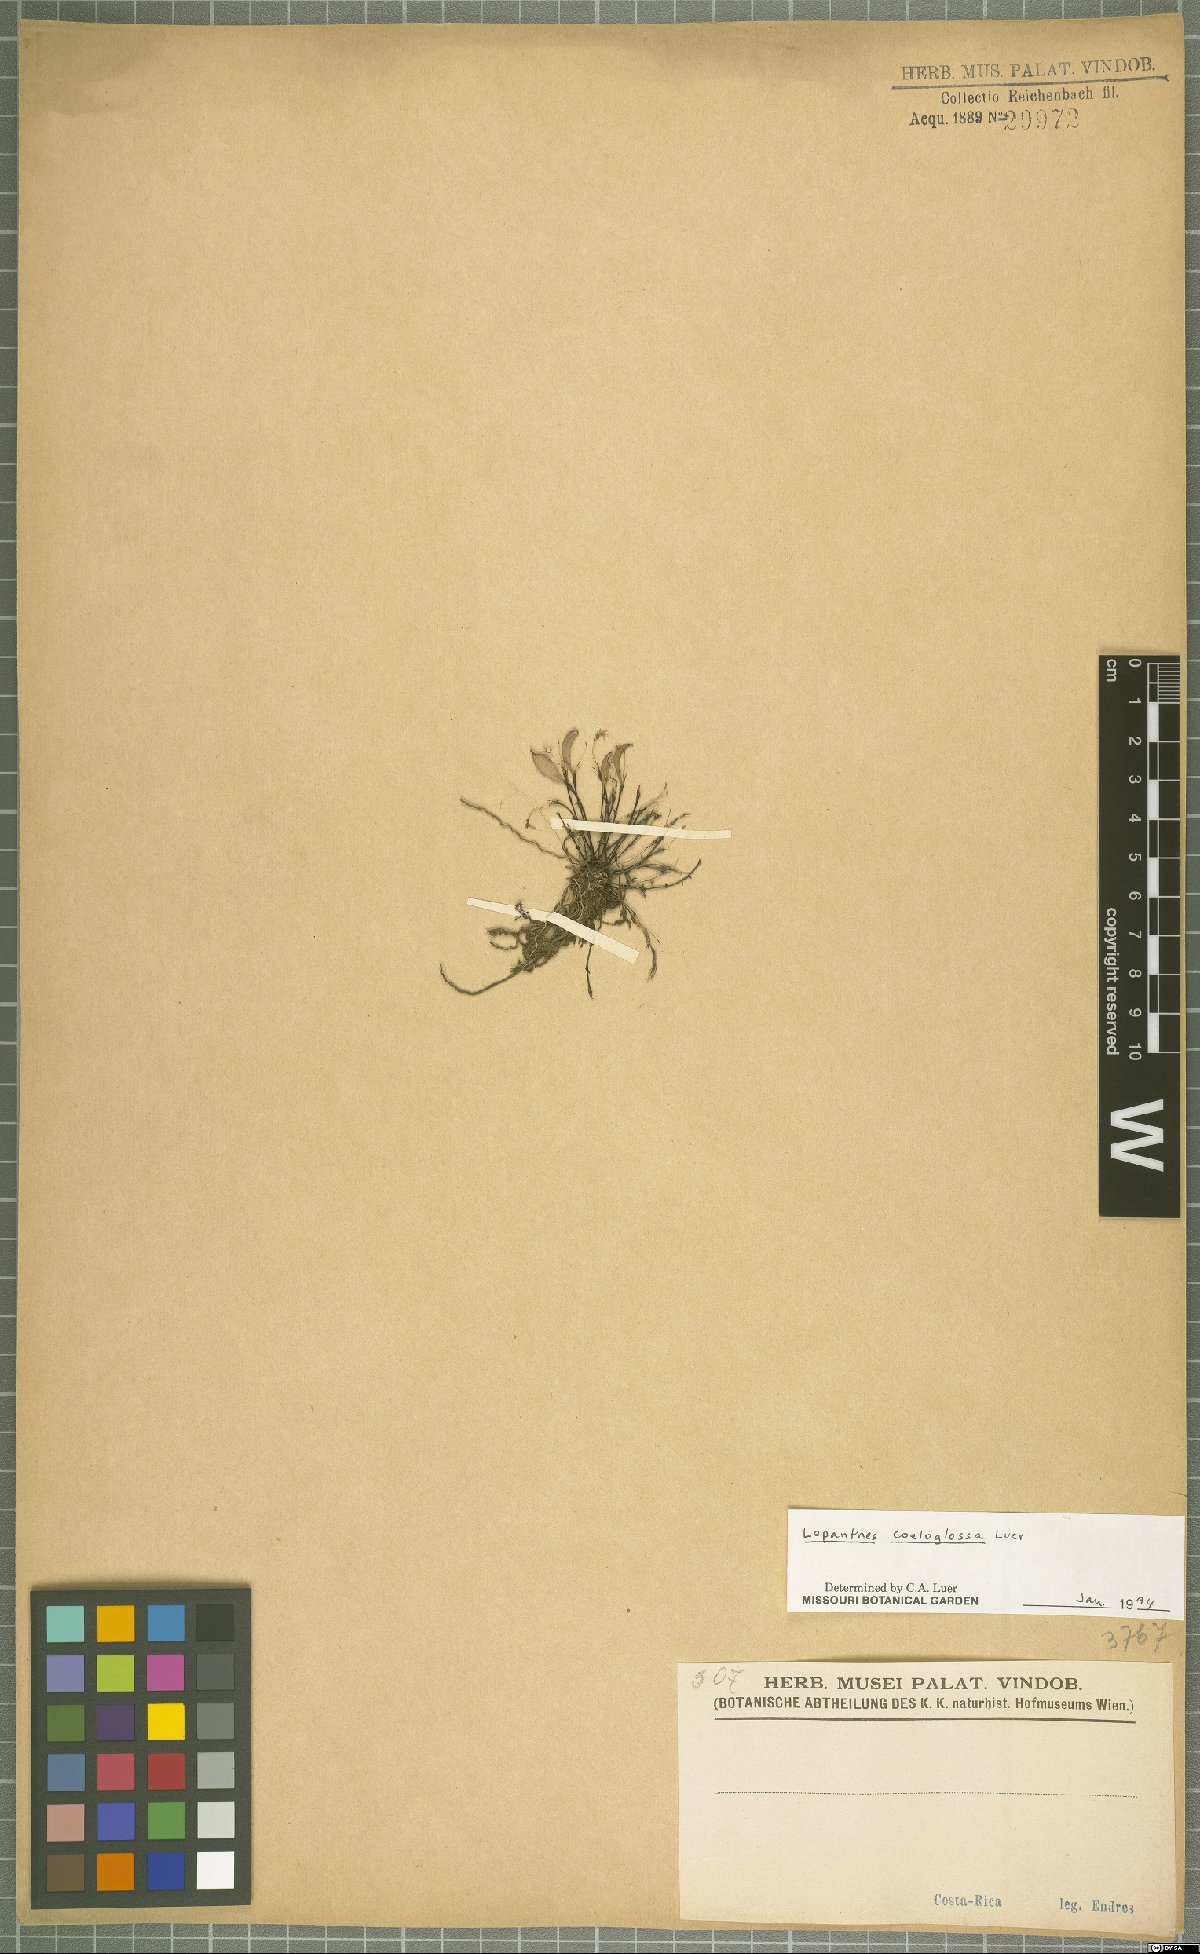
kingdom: Plantae
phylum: Tracheophyta
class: Liliopsida
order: Asparagales
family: Orchidaceae
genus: Lepanthes
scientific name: Lepanthes coeloglossa
